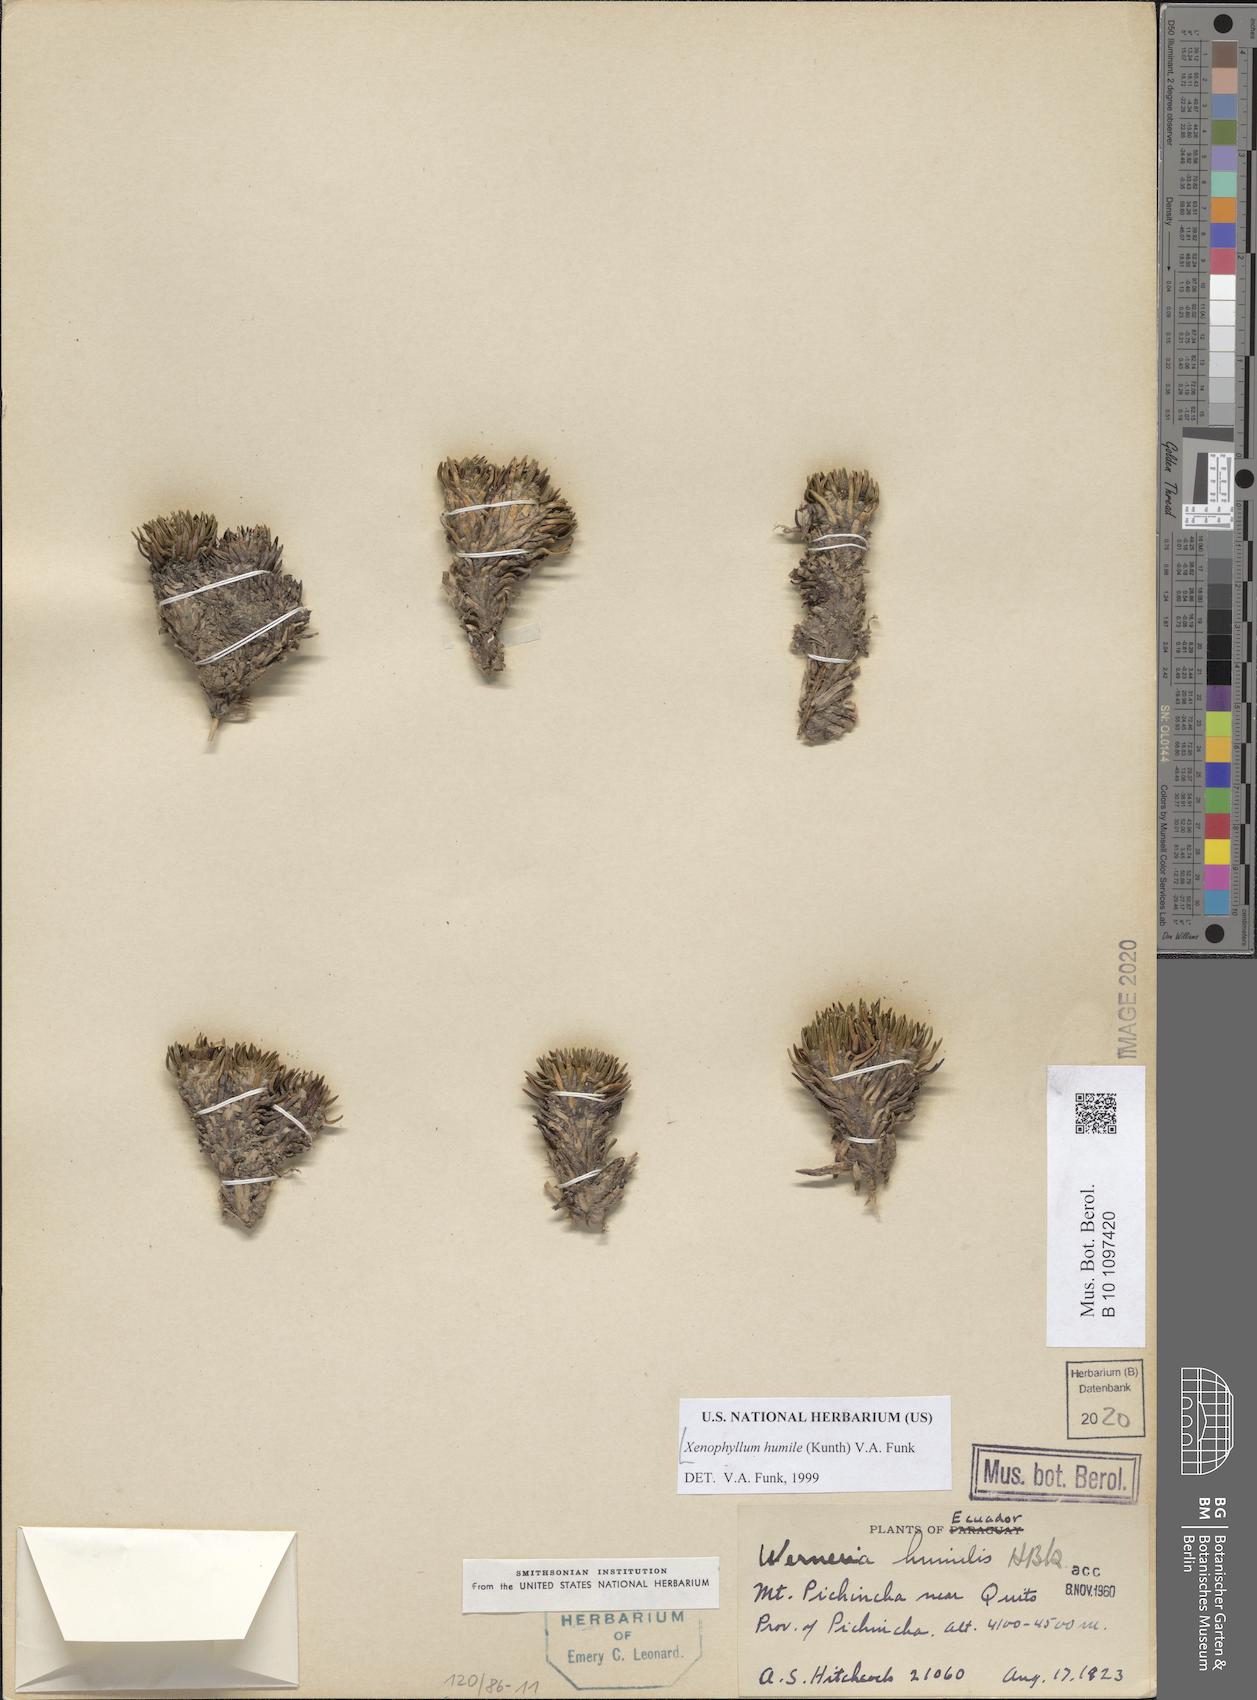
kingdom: Plantae
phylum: Tracheophyta
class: Magnoliopsida
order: Asterales
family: Asteraceae
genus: Werneria
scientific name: Werneria humilis
